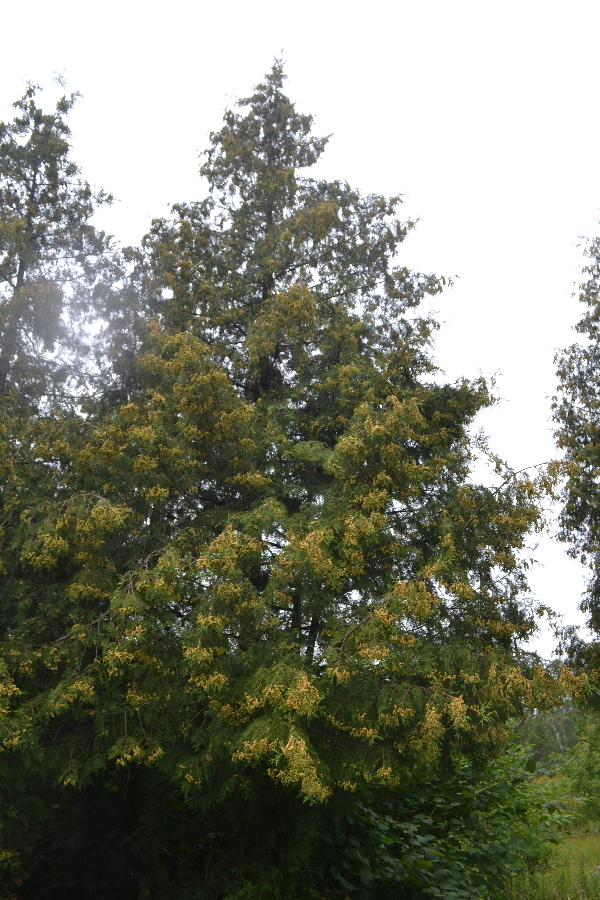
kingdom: Plantae
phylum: Tracheophyta
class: Pinopsida
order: Pinales
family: Cupressaceae
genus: Thuja
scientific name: Thuja occidentalis
